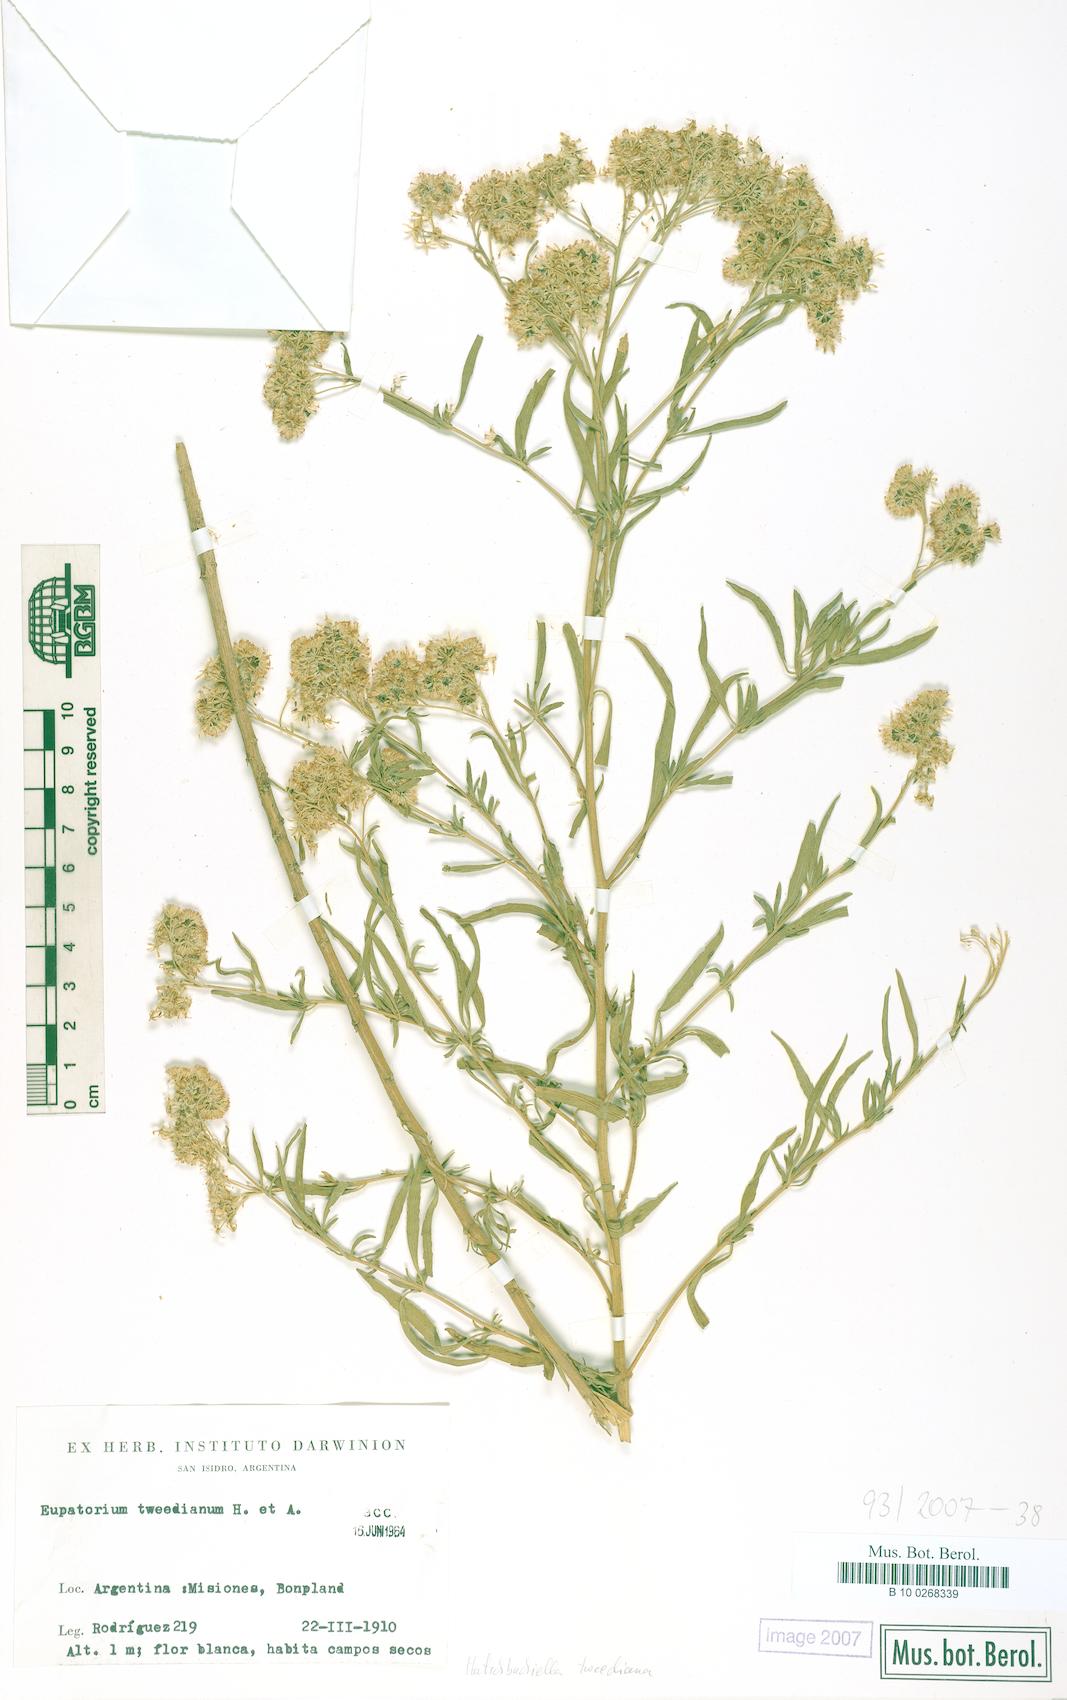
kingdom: Plantae
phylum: Tracheophyta
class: Magnoliopsida
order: Asterales
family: Asteraceae
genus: Hatschbachiella
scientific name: Hatschbachiella tweedieana
